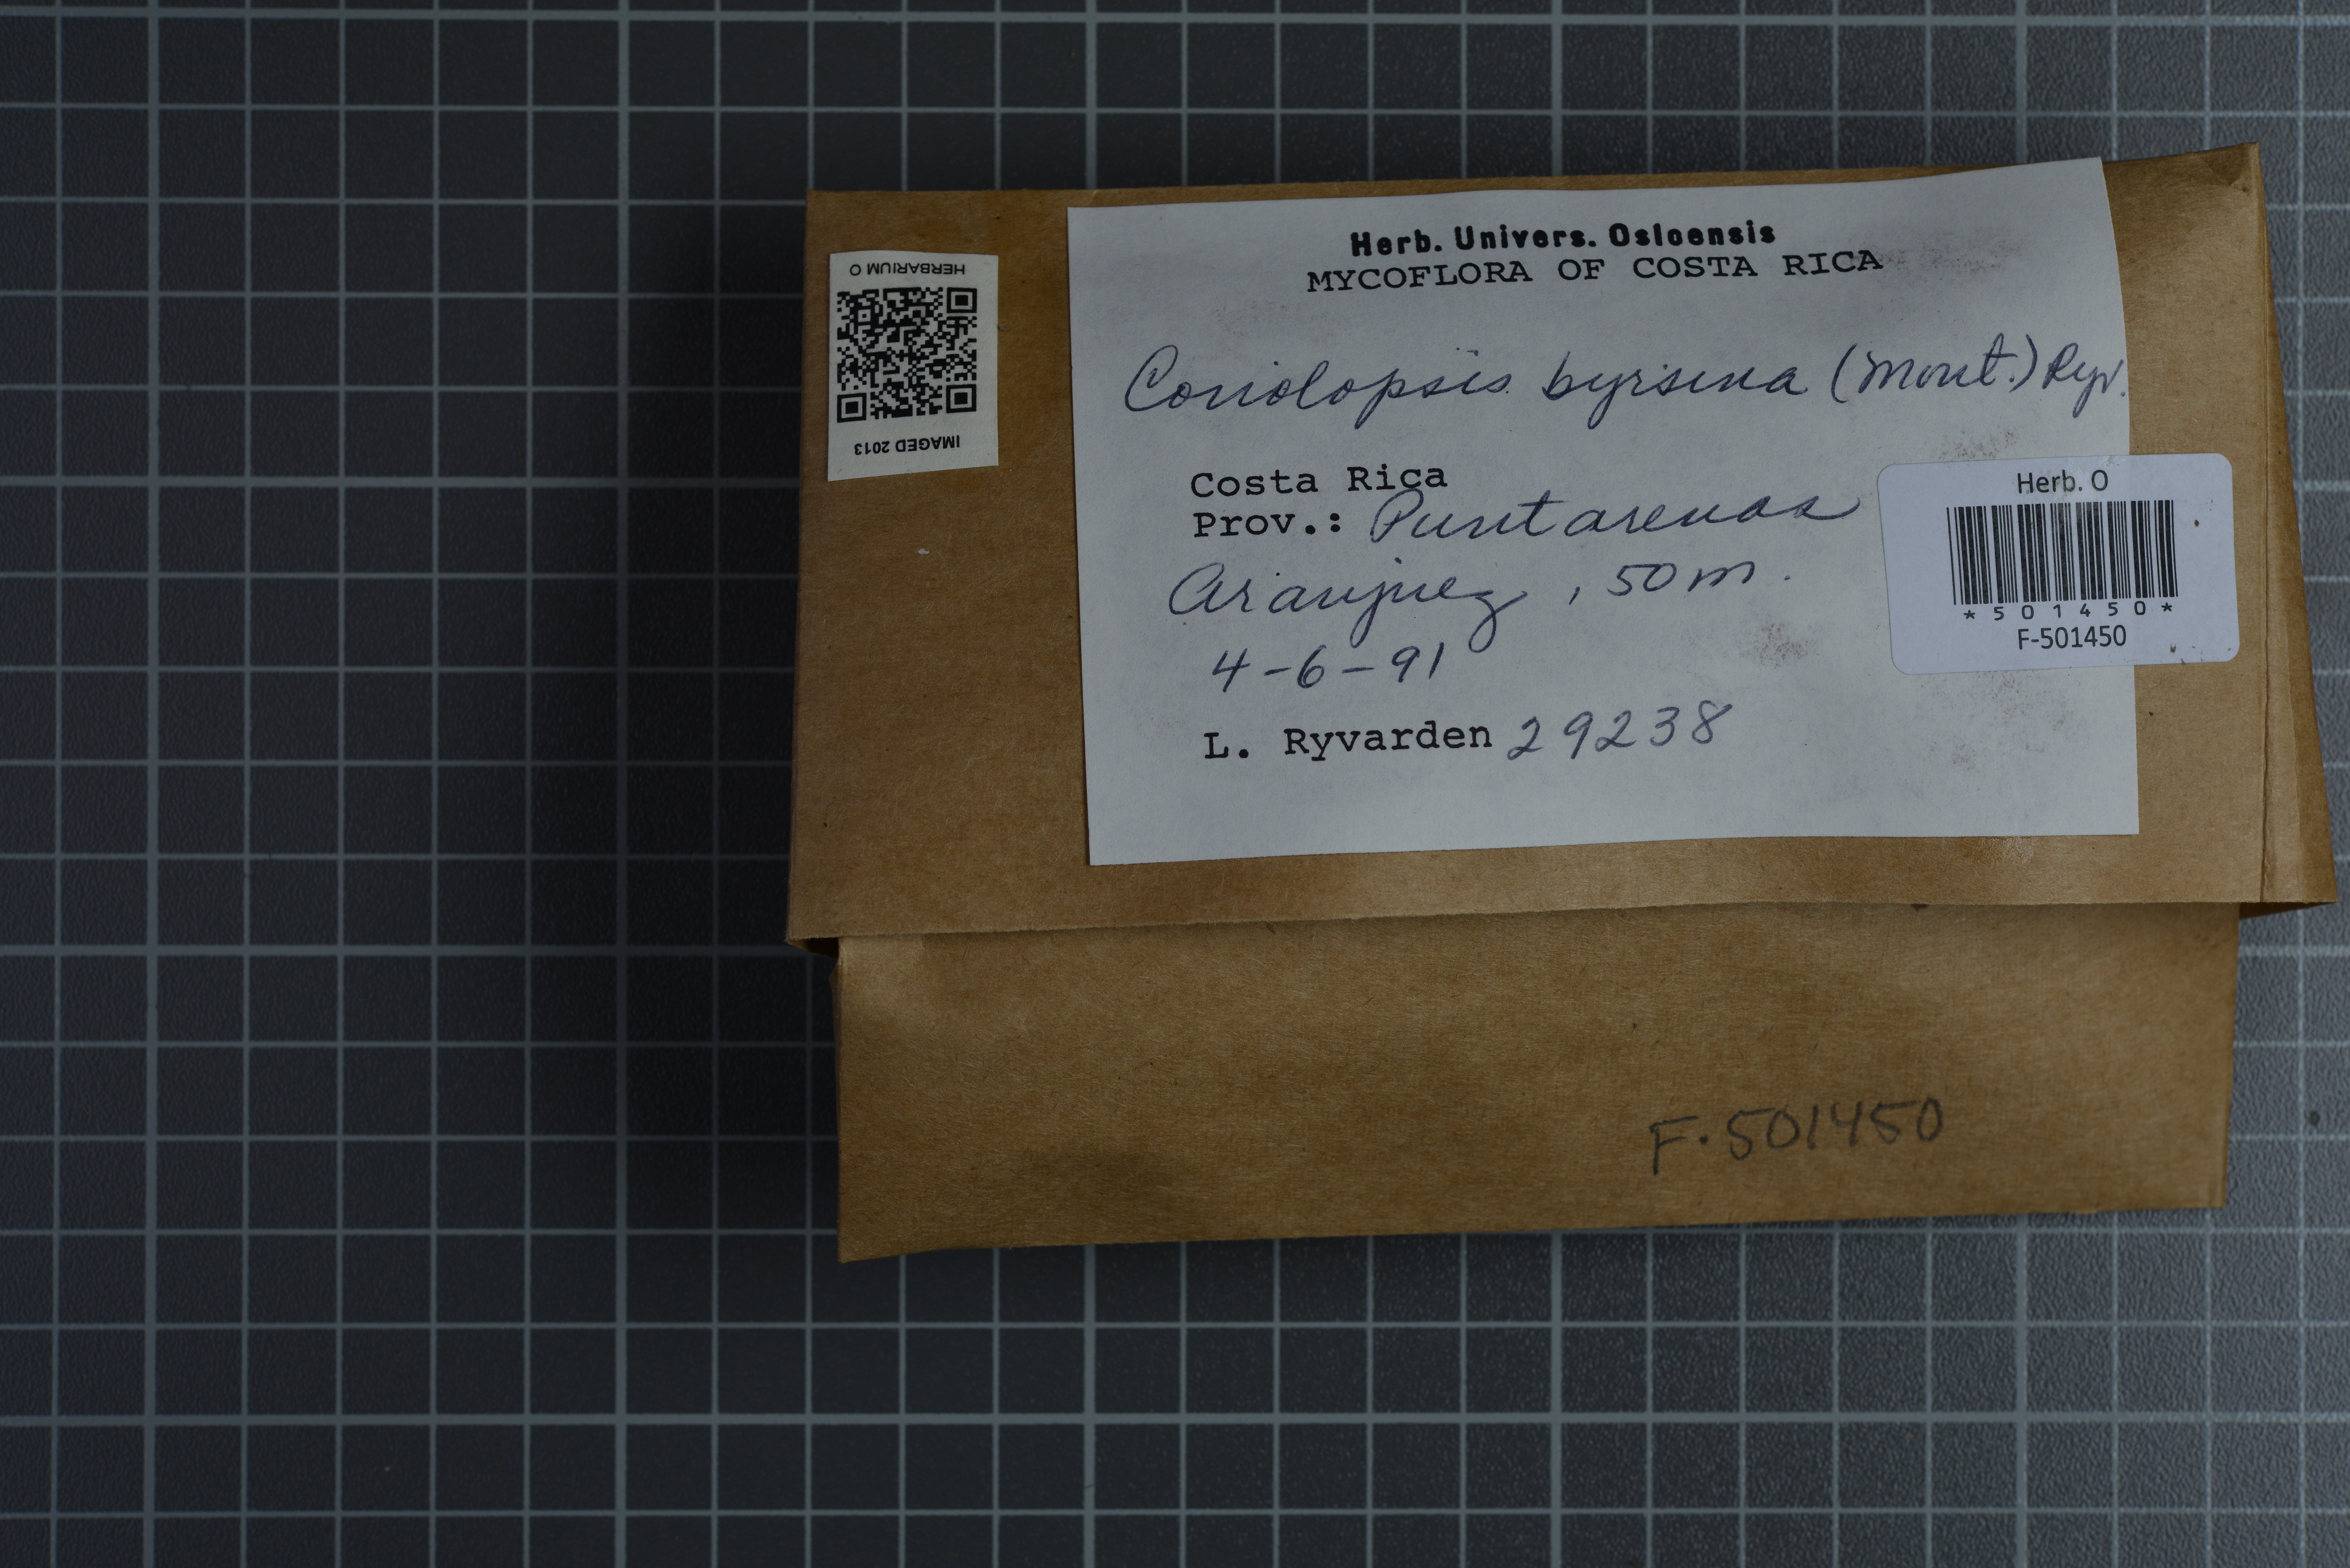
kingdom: Fungi
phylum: Basidiomycota
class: Agaricomycetes
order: Polyporales
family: Polyporaceae
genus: Coriolopsis
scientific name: Coriolopsis byrsina
